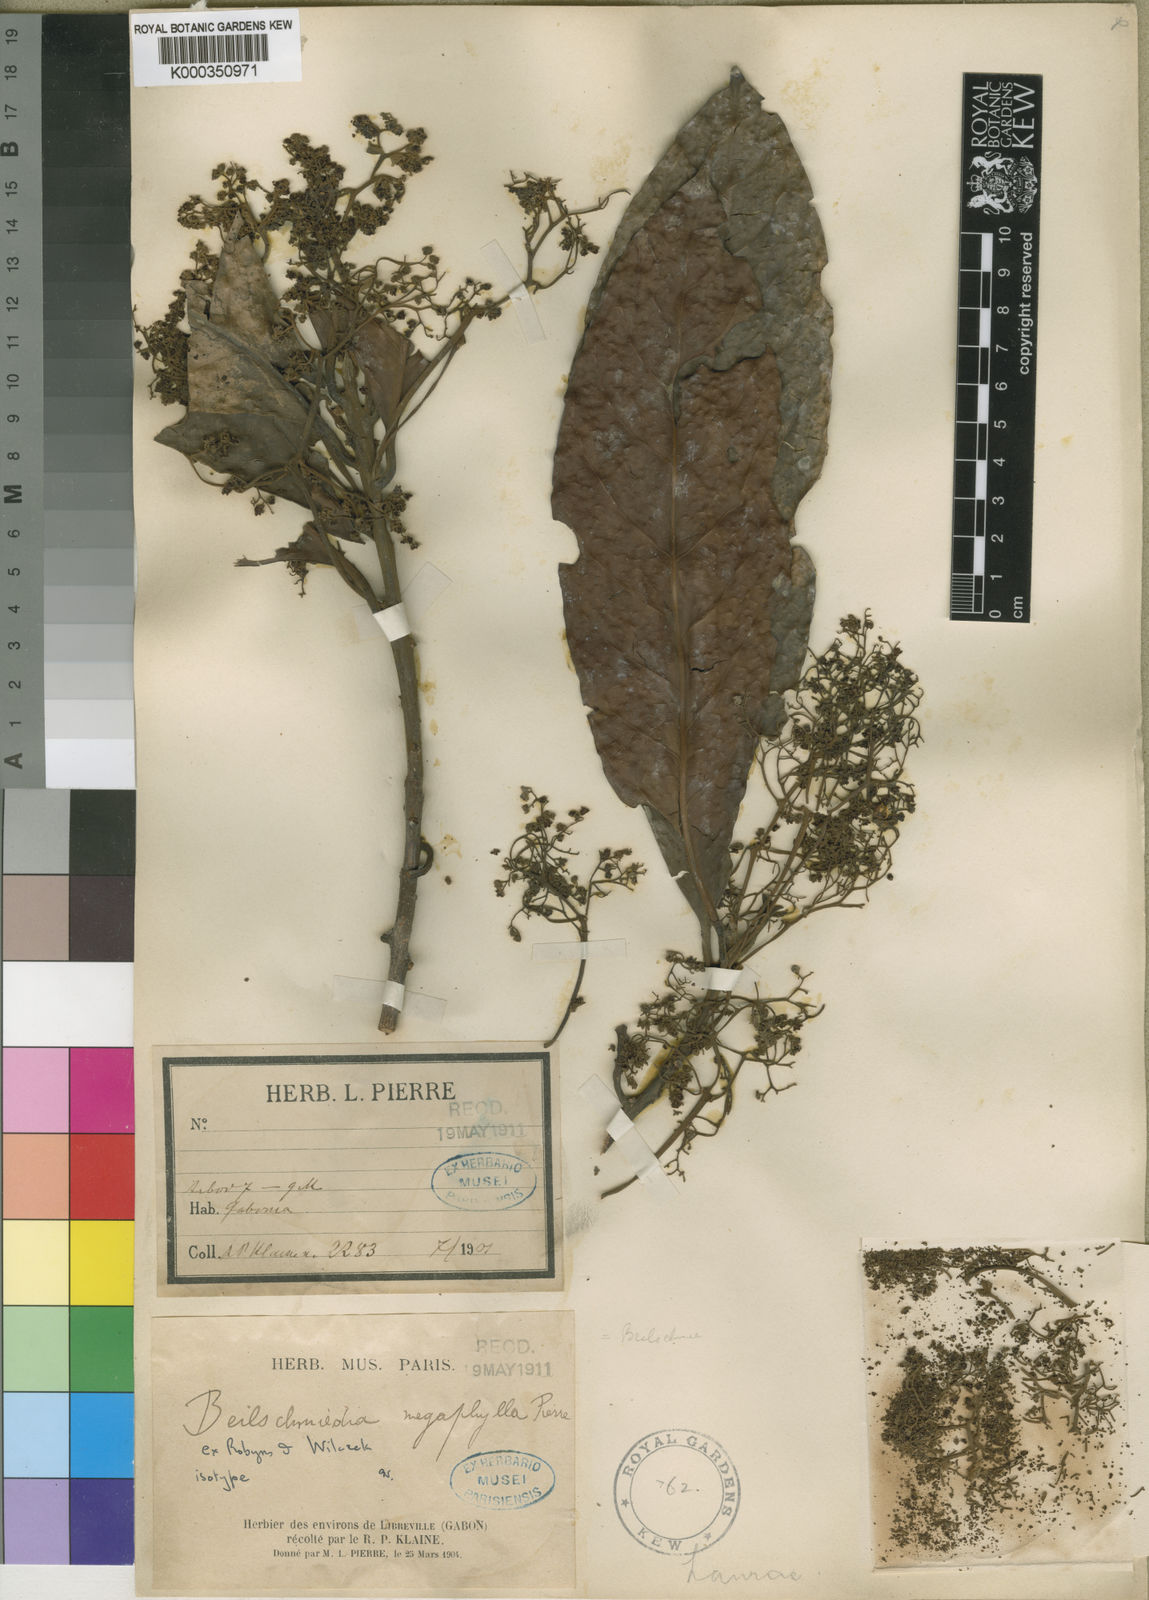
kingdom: Plantae
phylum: Tracheophyta
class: Magnoliopsida
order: Laurales
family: Lauraceae
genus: Beilschmiedia
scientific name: Beilschmiedia corbisieri
